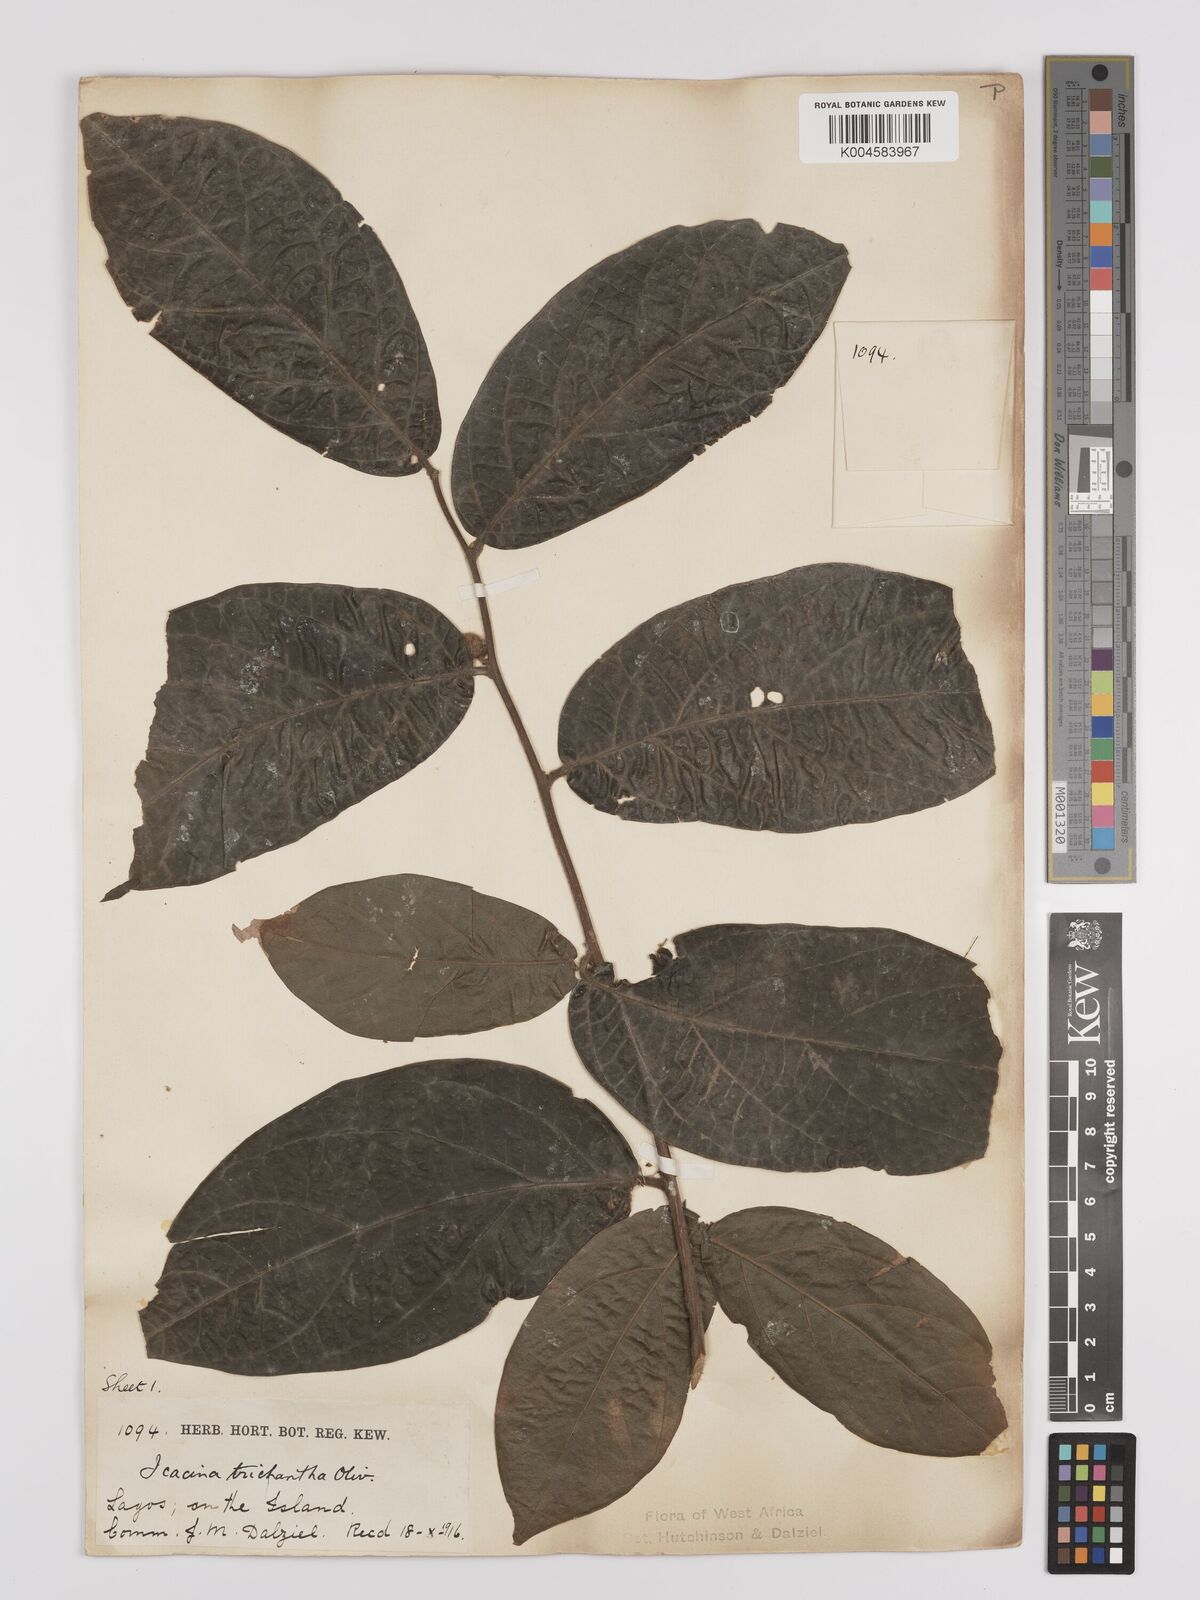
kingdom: Plantae
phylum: Tracheophyta
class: Magnoliopsida
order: Icacinales
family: Icacinaceae
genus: Icacina
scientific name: Icacina trichantha
